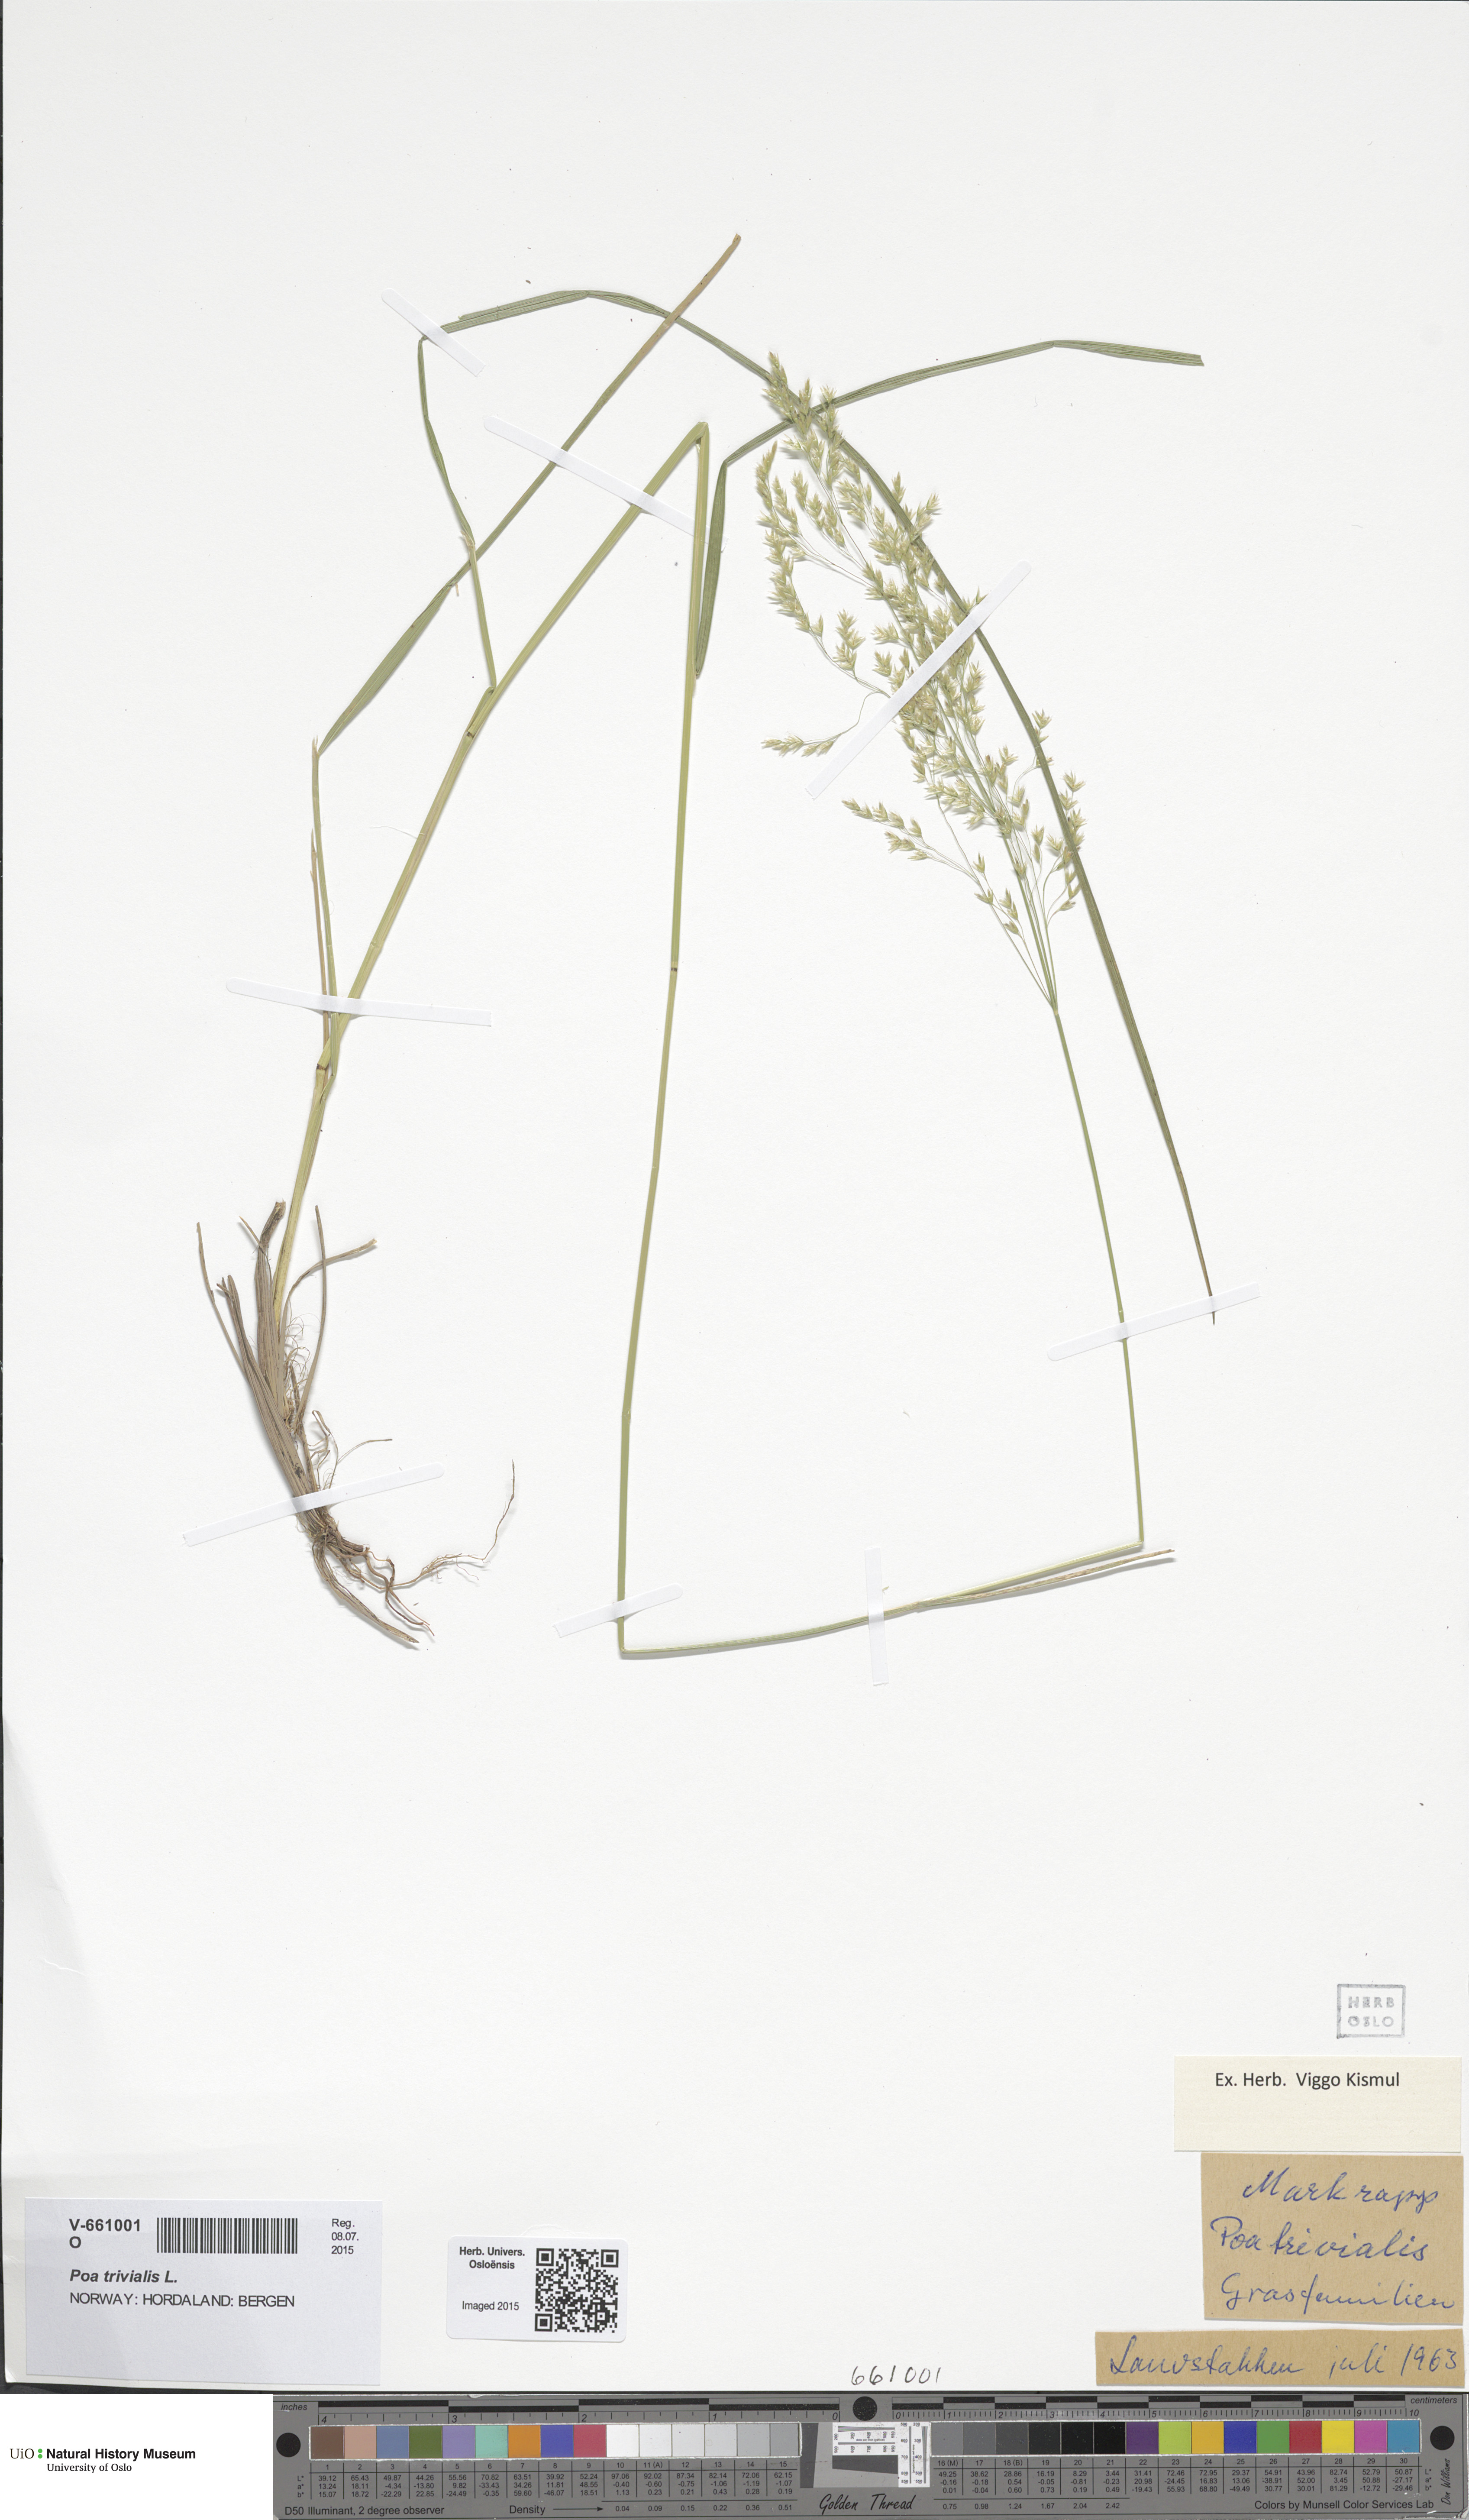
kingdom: Plantae
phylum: Tracheophyta
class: Liliopsida
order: Poales
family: Poaceae
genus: Deschampsia
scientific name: Deschampsia cespitosa
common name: Tufted hair-grass
